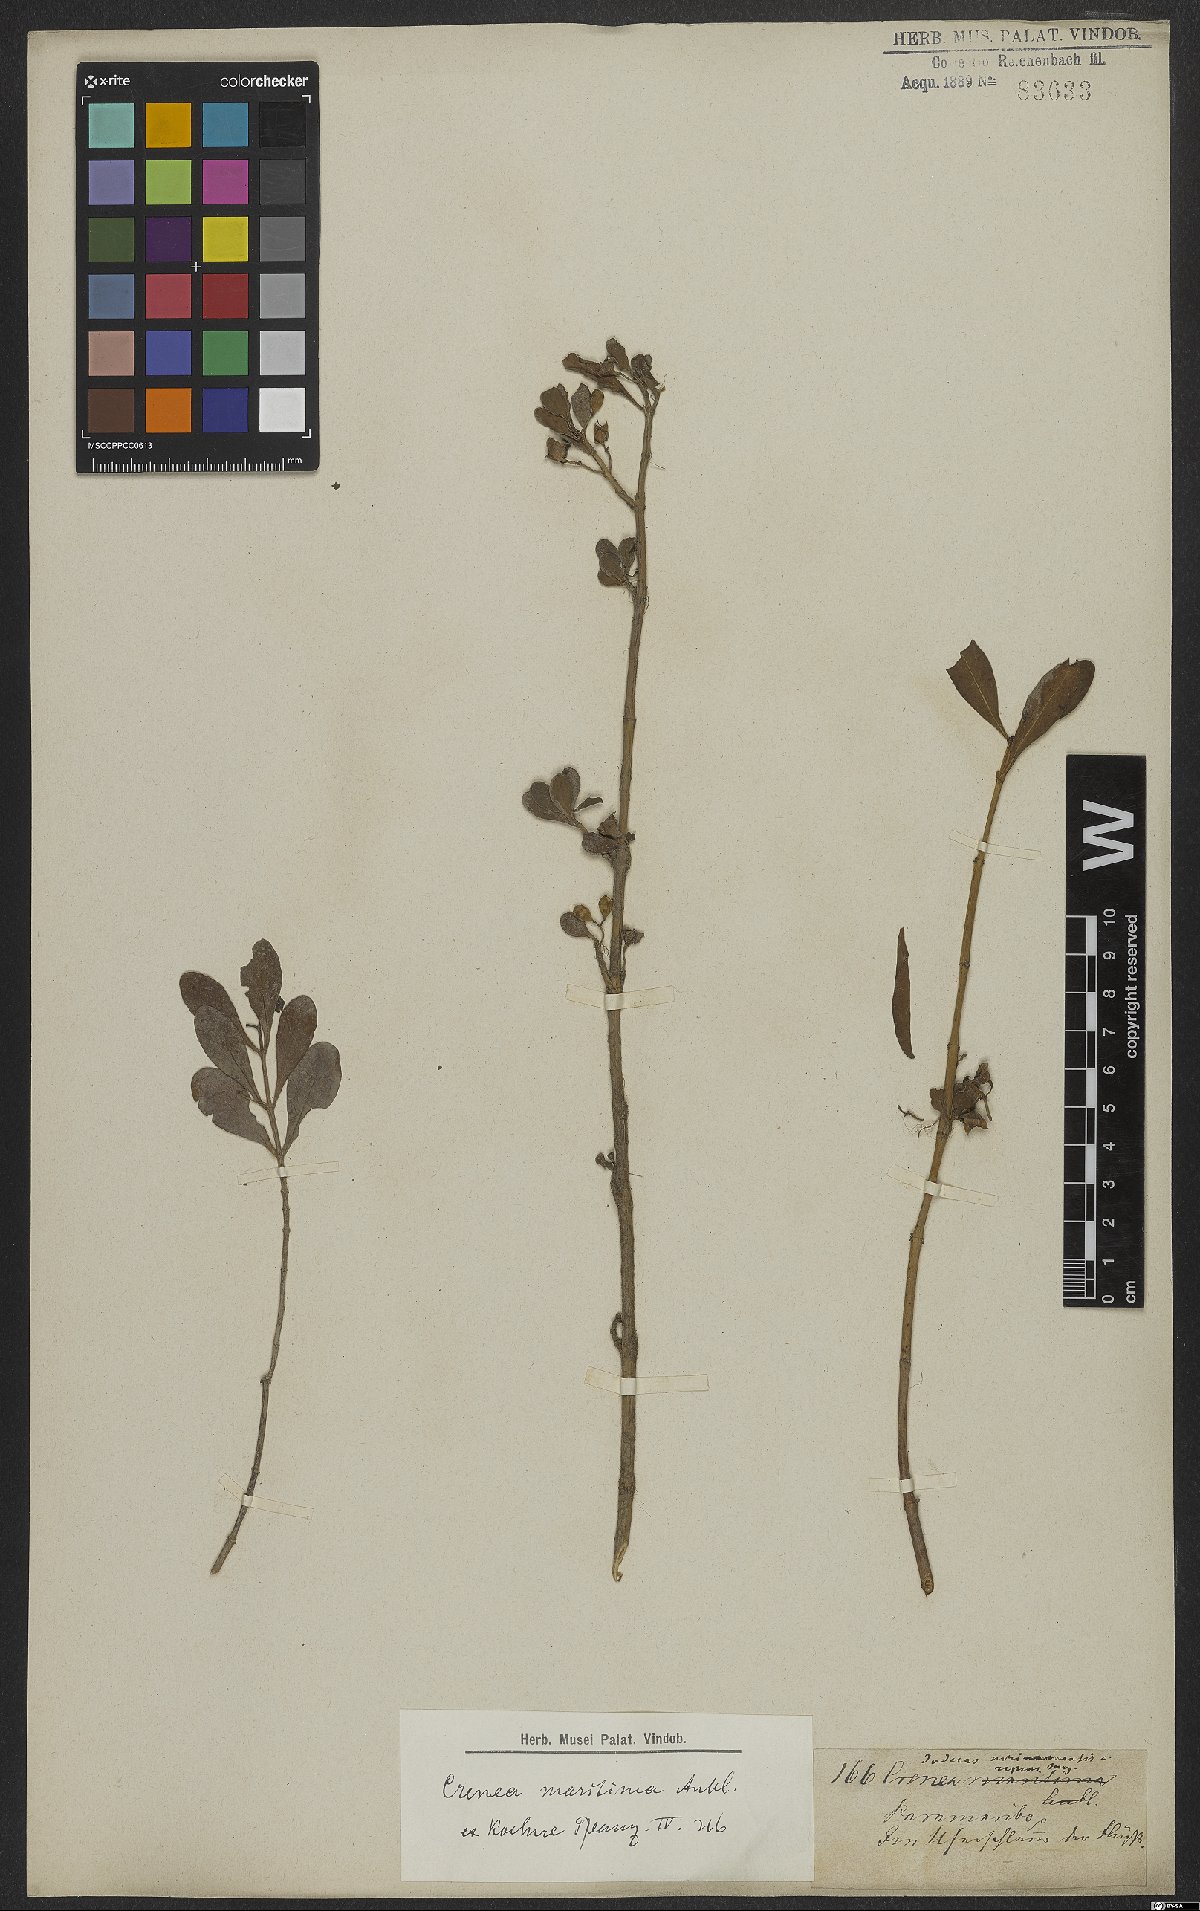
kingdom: Plantae
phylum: Tracheophyta
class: Magnoliopsida
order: Myrtales
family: Lythraceae
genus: Ammannia
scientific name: Ammannia maritima
